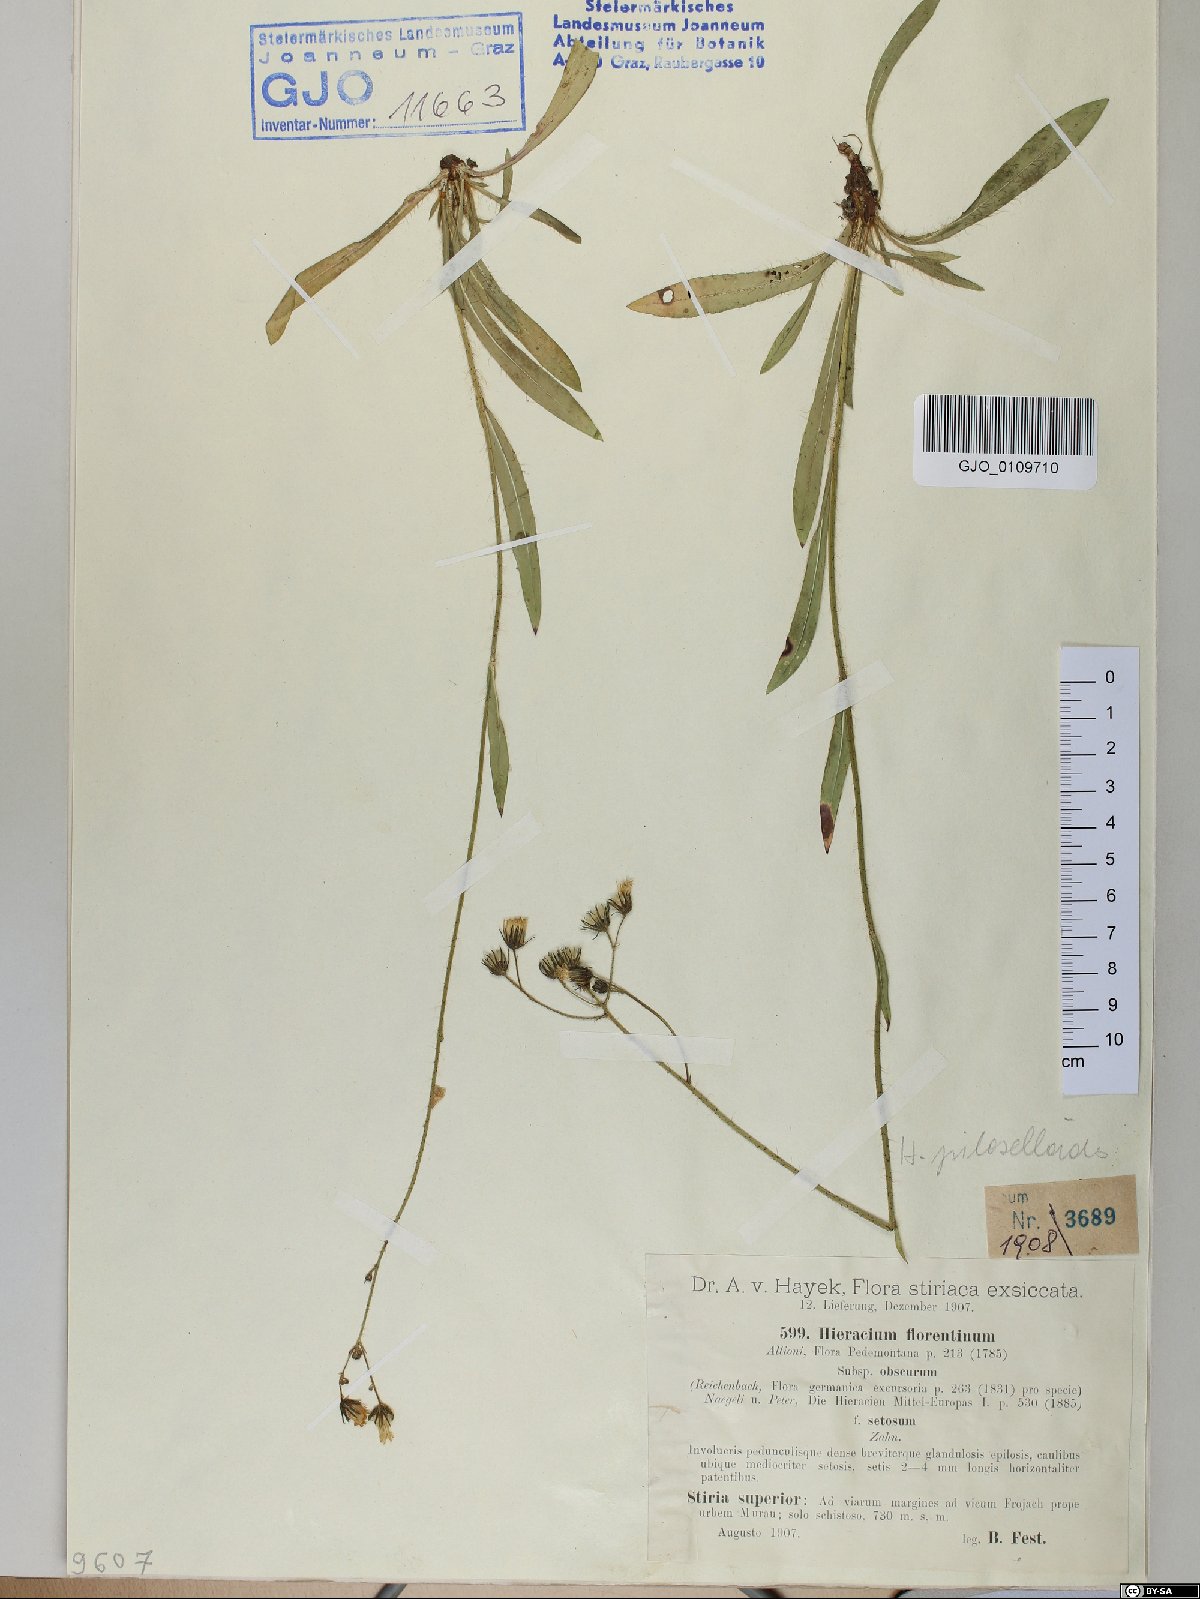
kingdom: Plantae
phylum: Tracheophyta
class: Magnoliopsida
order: Asterales
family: Asteraceae
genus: Hieracium
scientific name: Hieracium florentinum
